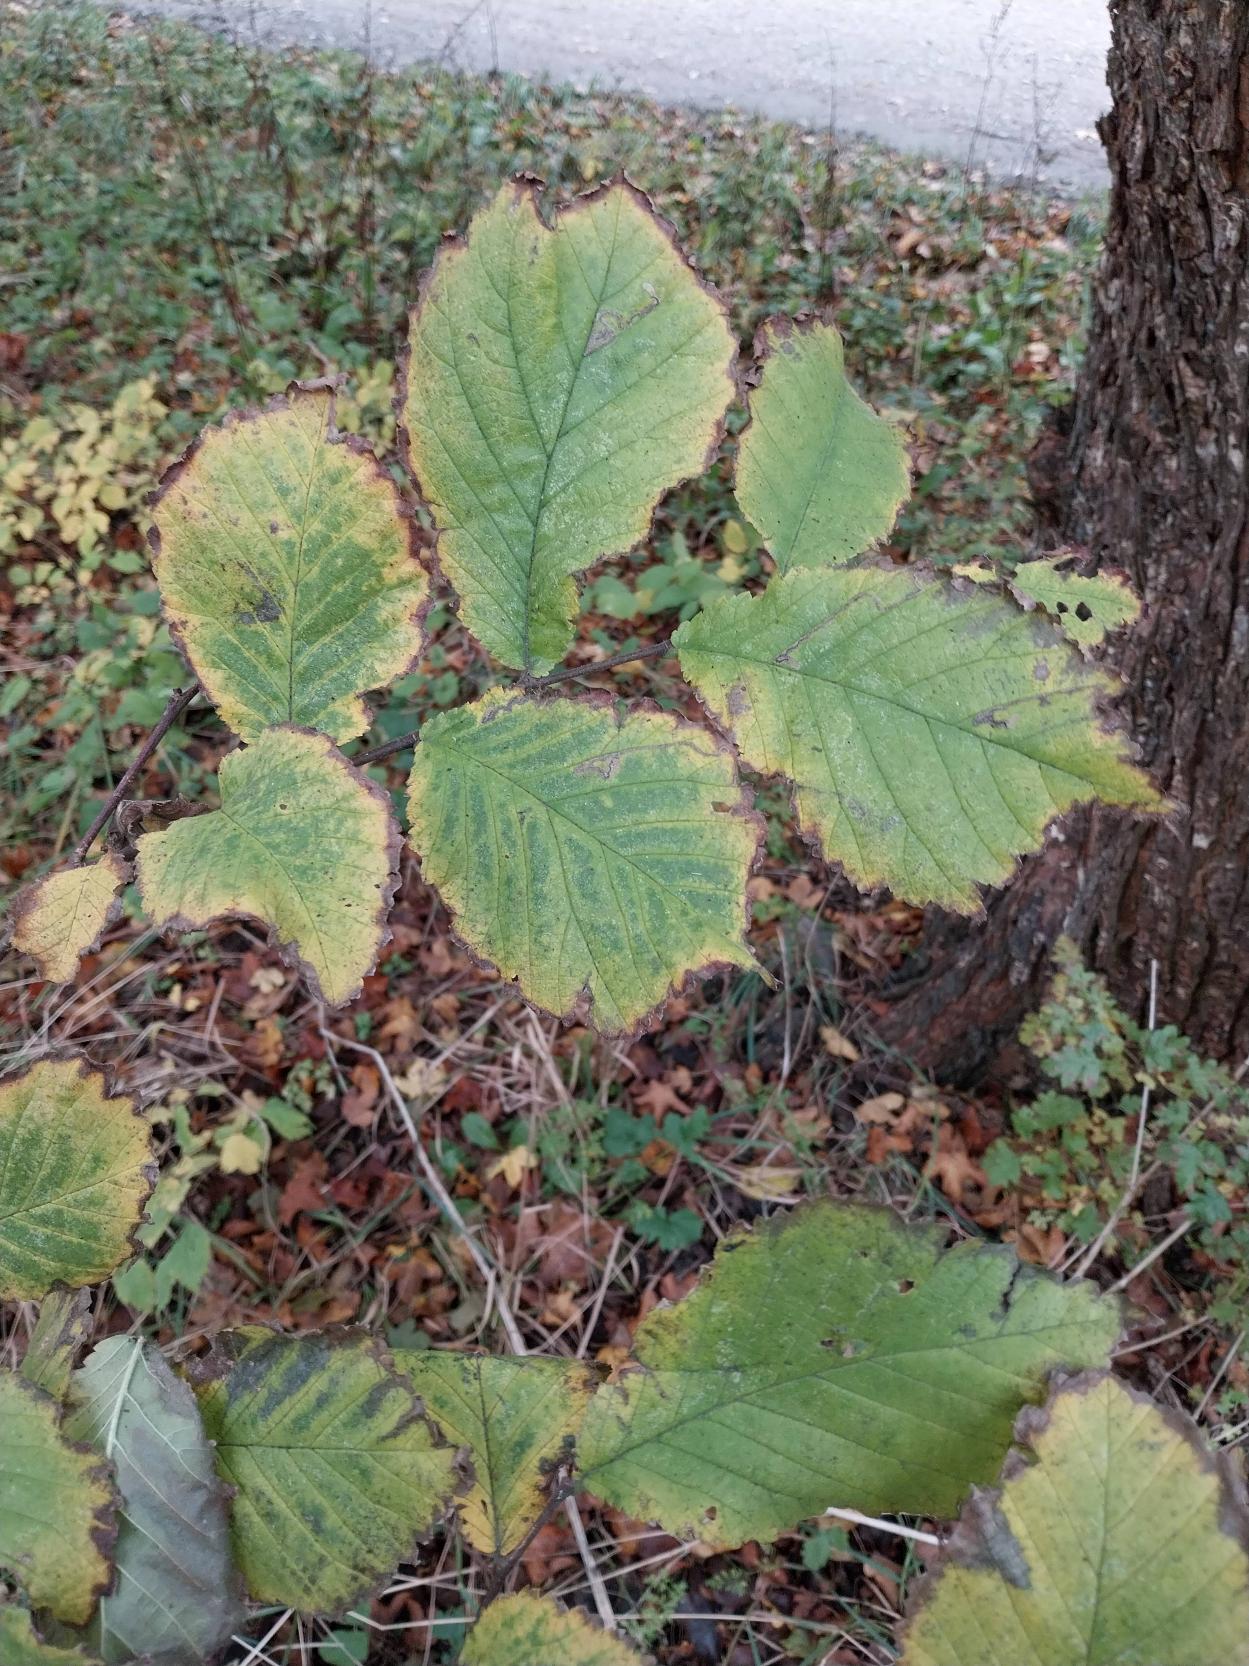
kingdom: Plantae
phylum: Tracheophyta
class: Magnoliopsida
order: Rosales
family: Ulmaceae
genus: Ulmus
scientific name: Ulmus glabra
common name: Skov-elm/storbladet elm
